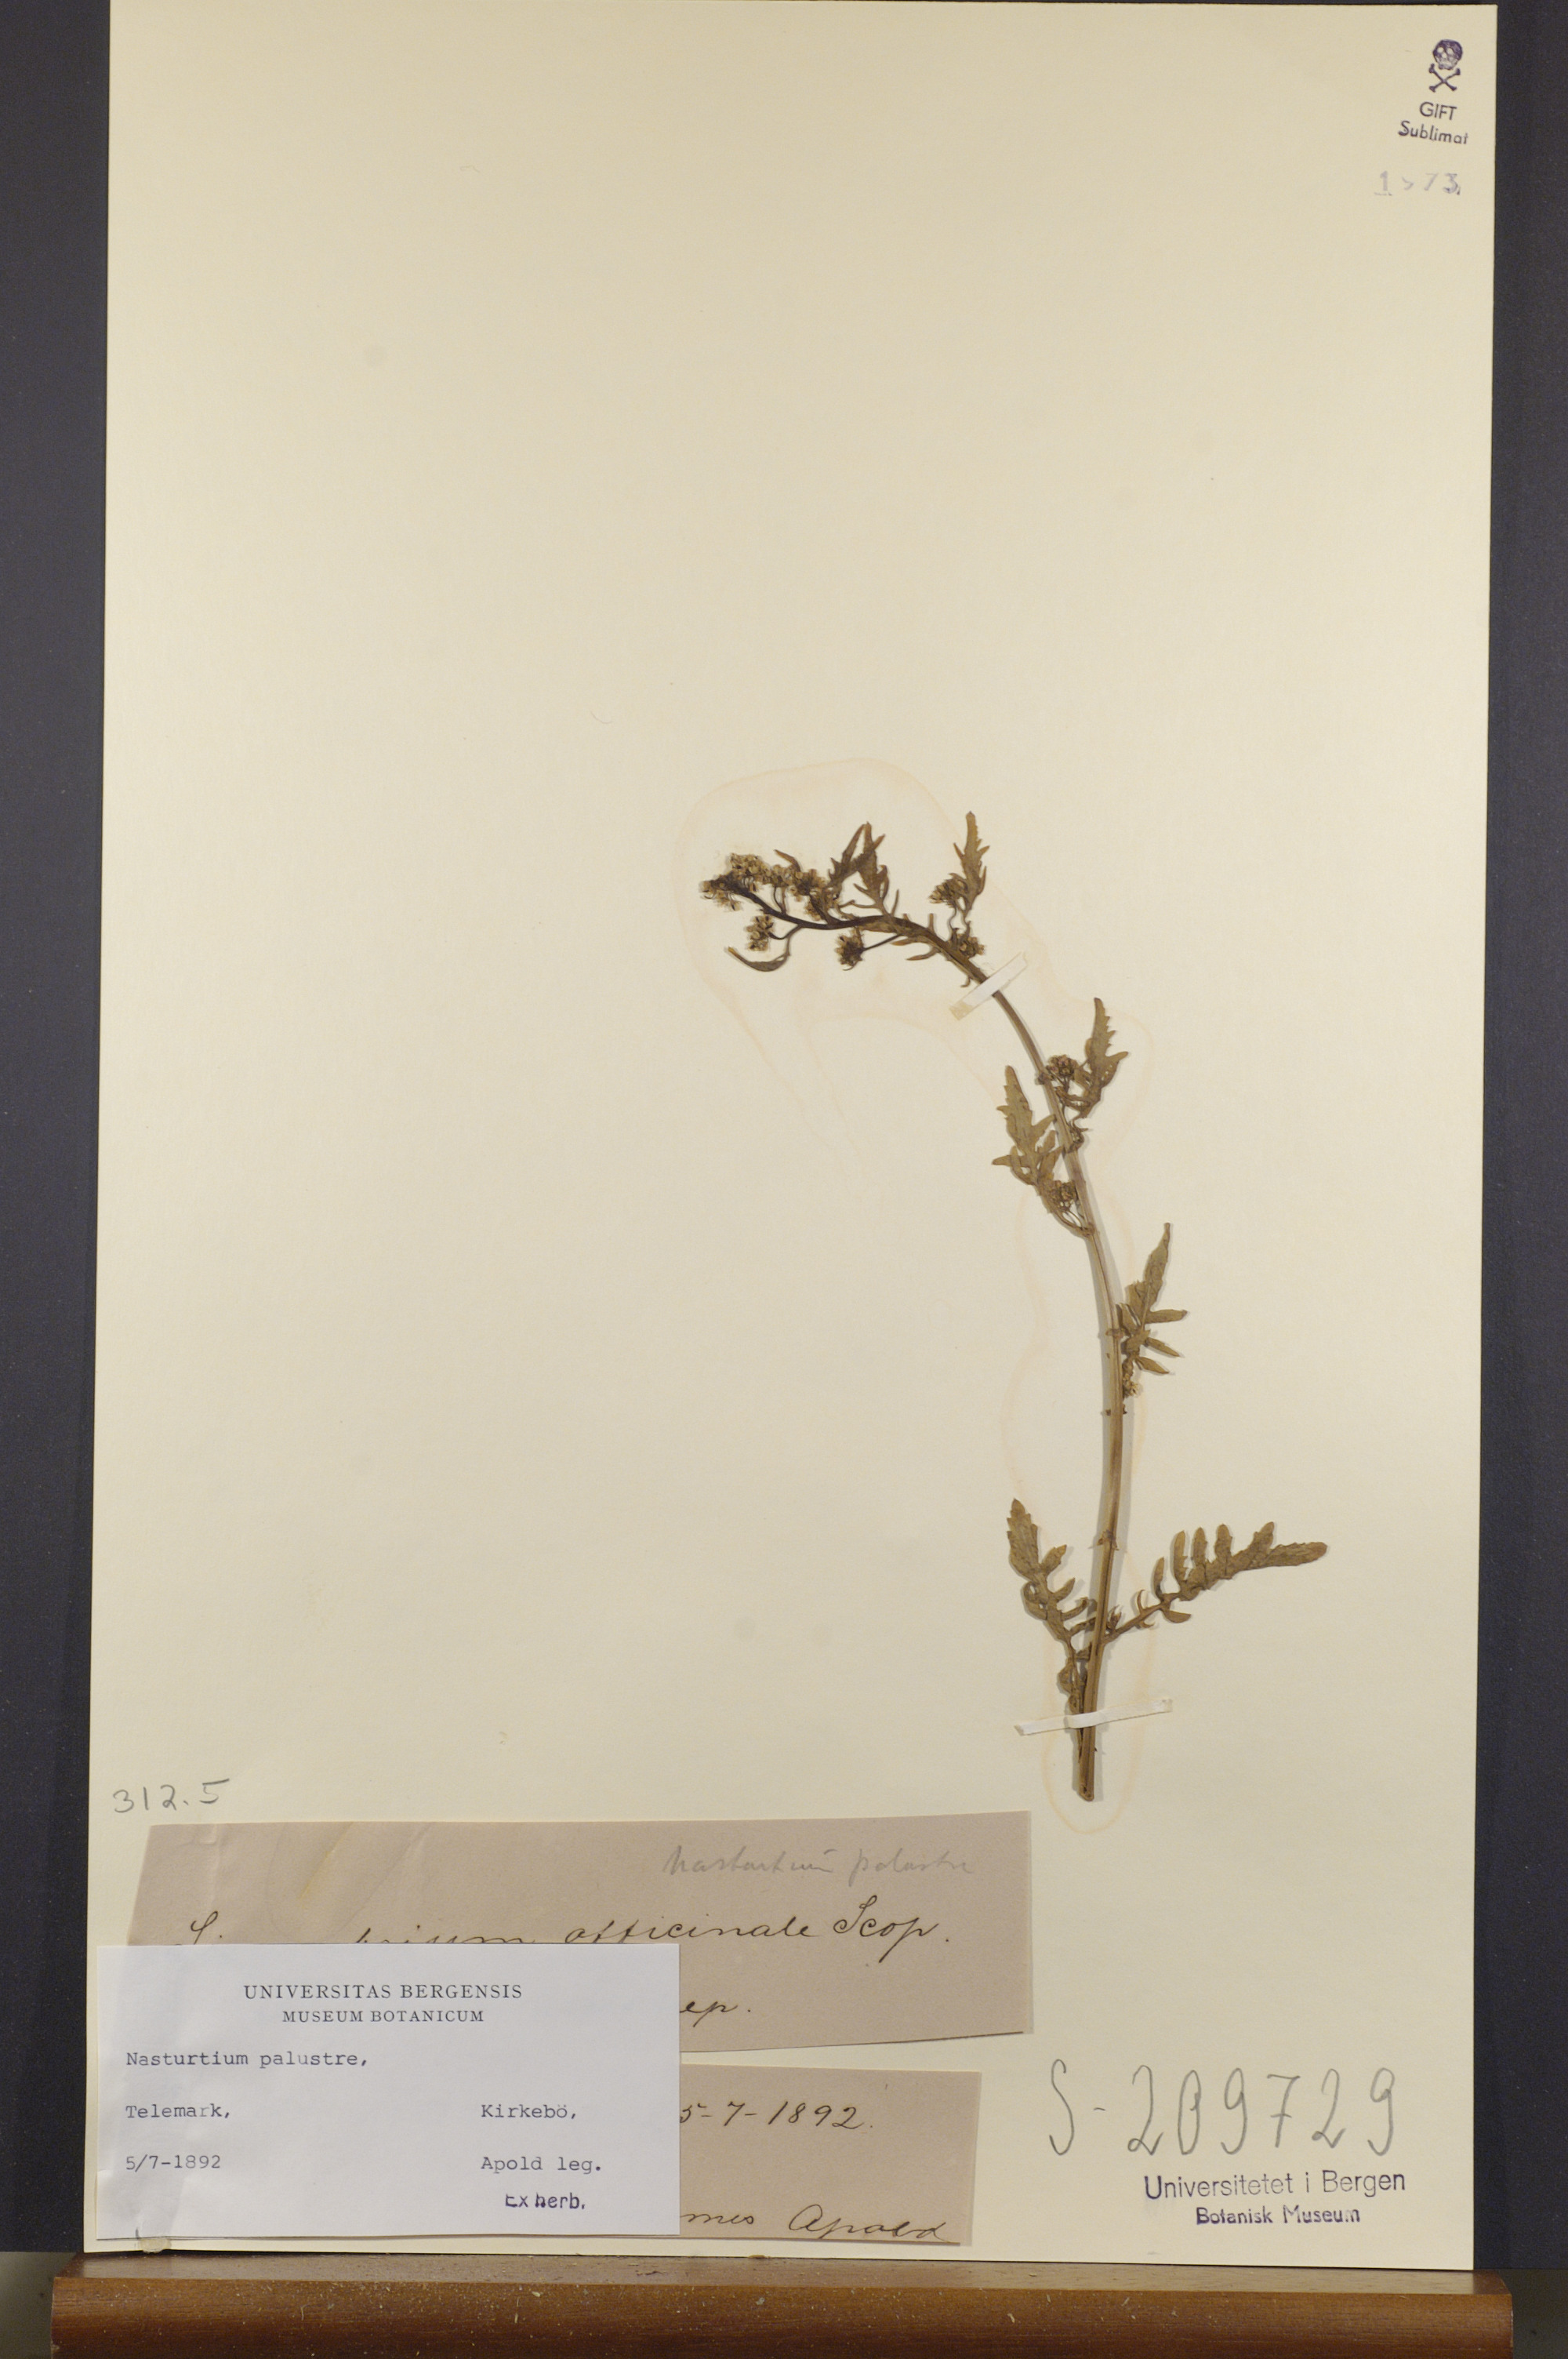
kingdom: Plantae
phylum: Tracheophyta
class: Magnoliopsida
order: Brassicales
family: Brassicaceae
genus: Rorippa
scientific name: Rorippa palustris
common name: Marsh yellow-cress
